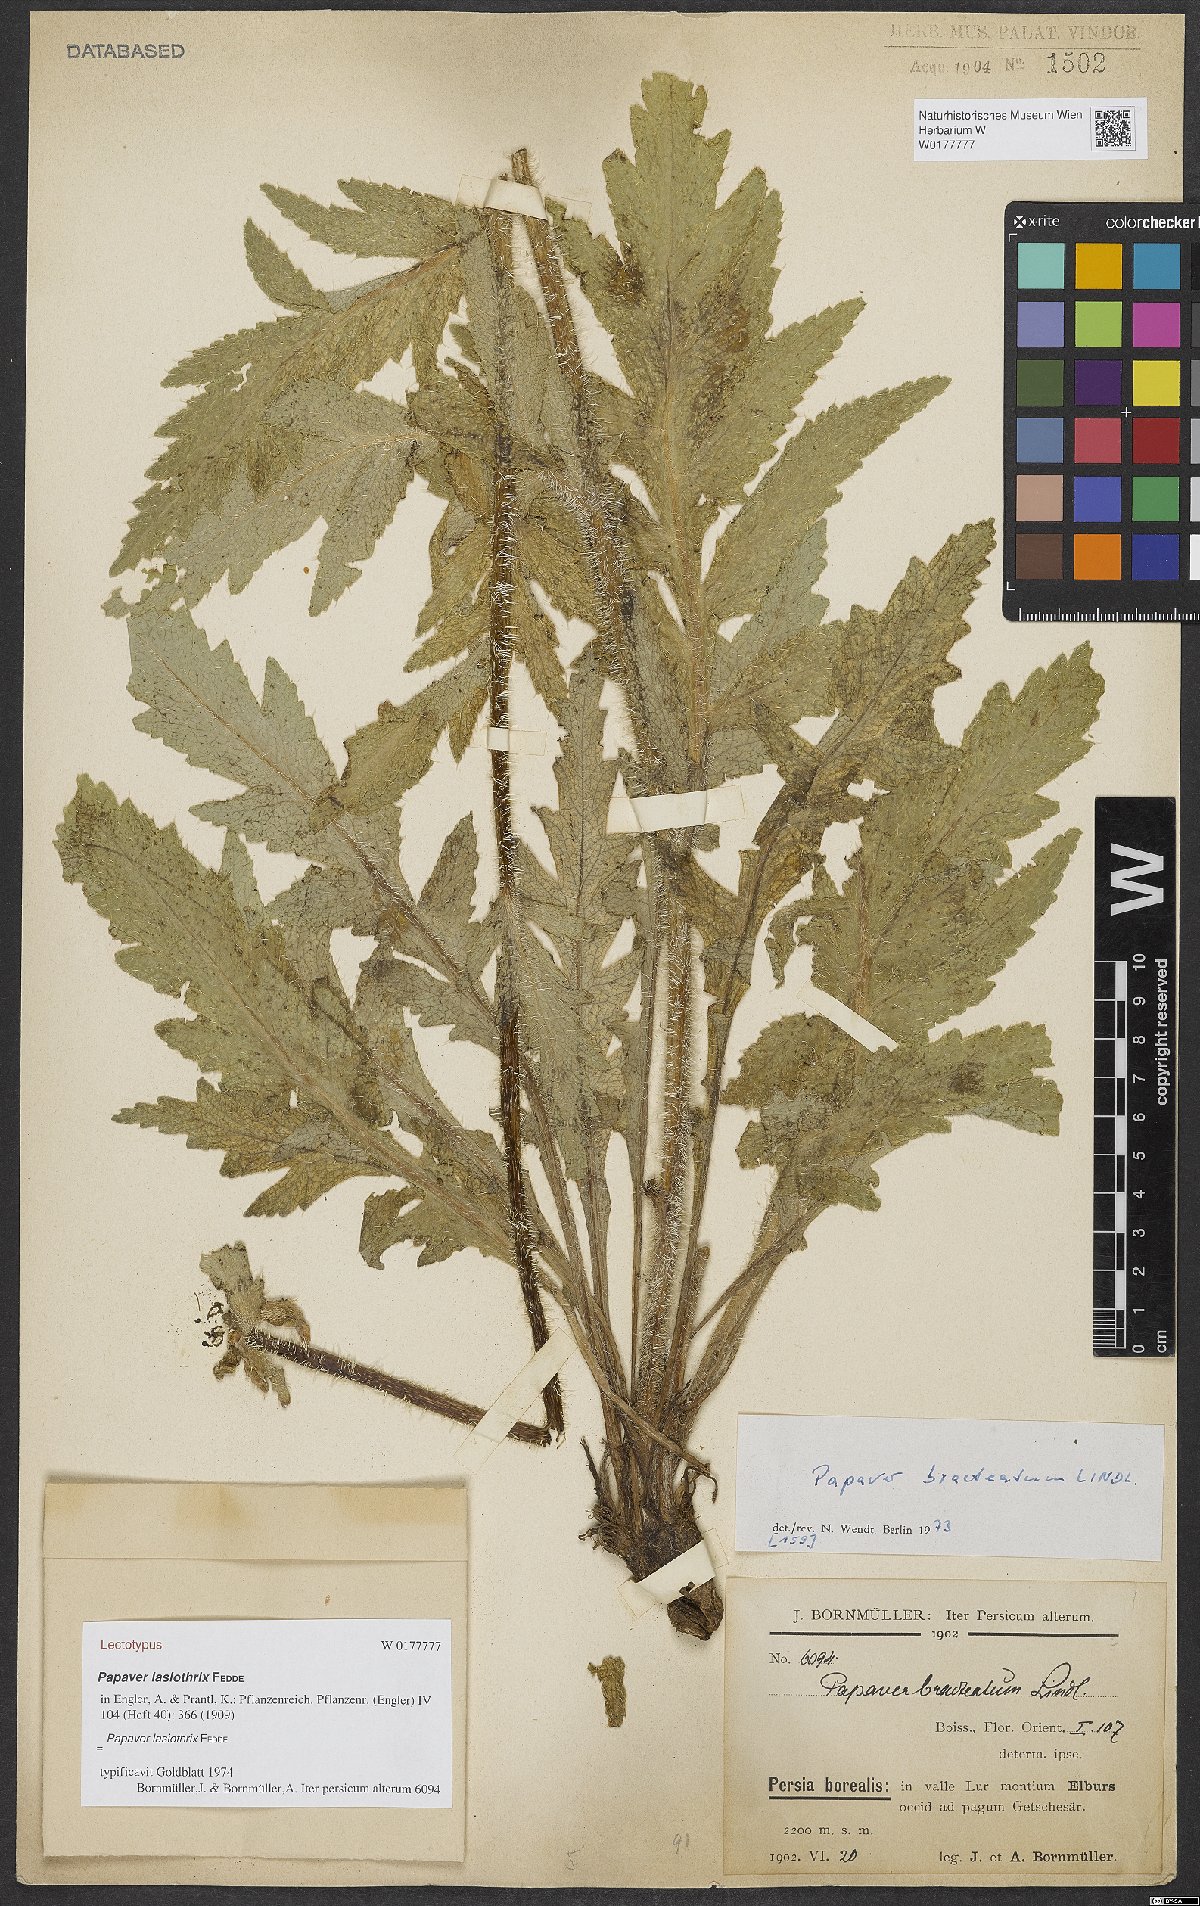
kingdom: Plantae
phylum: Tracheophyta
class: Magnoliopsida
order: Ranunculales
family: Papaveraceae
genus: Papaver
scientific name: Papaver bracteatum
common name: Great scarlet poppy
